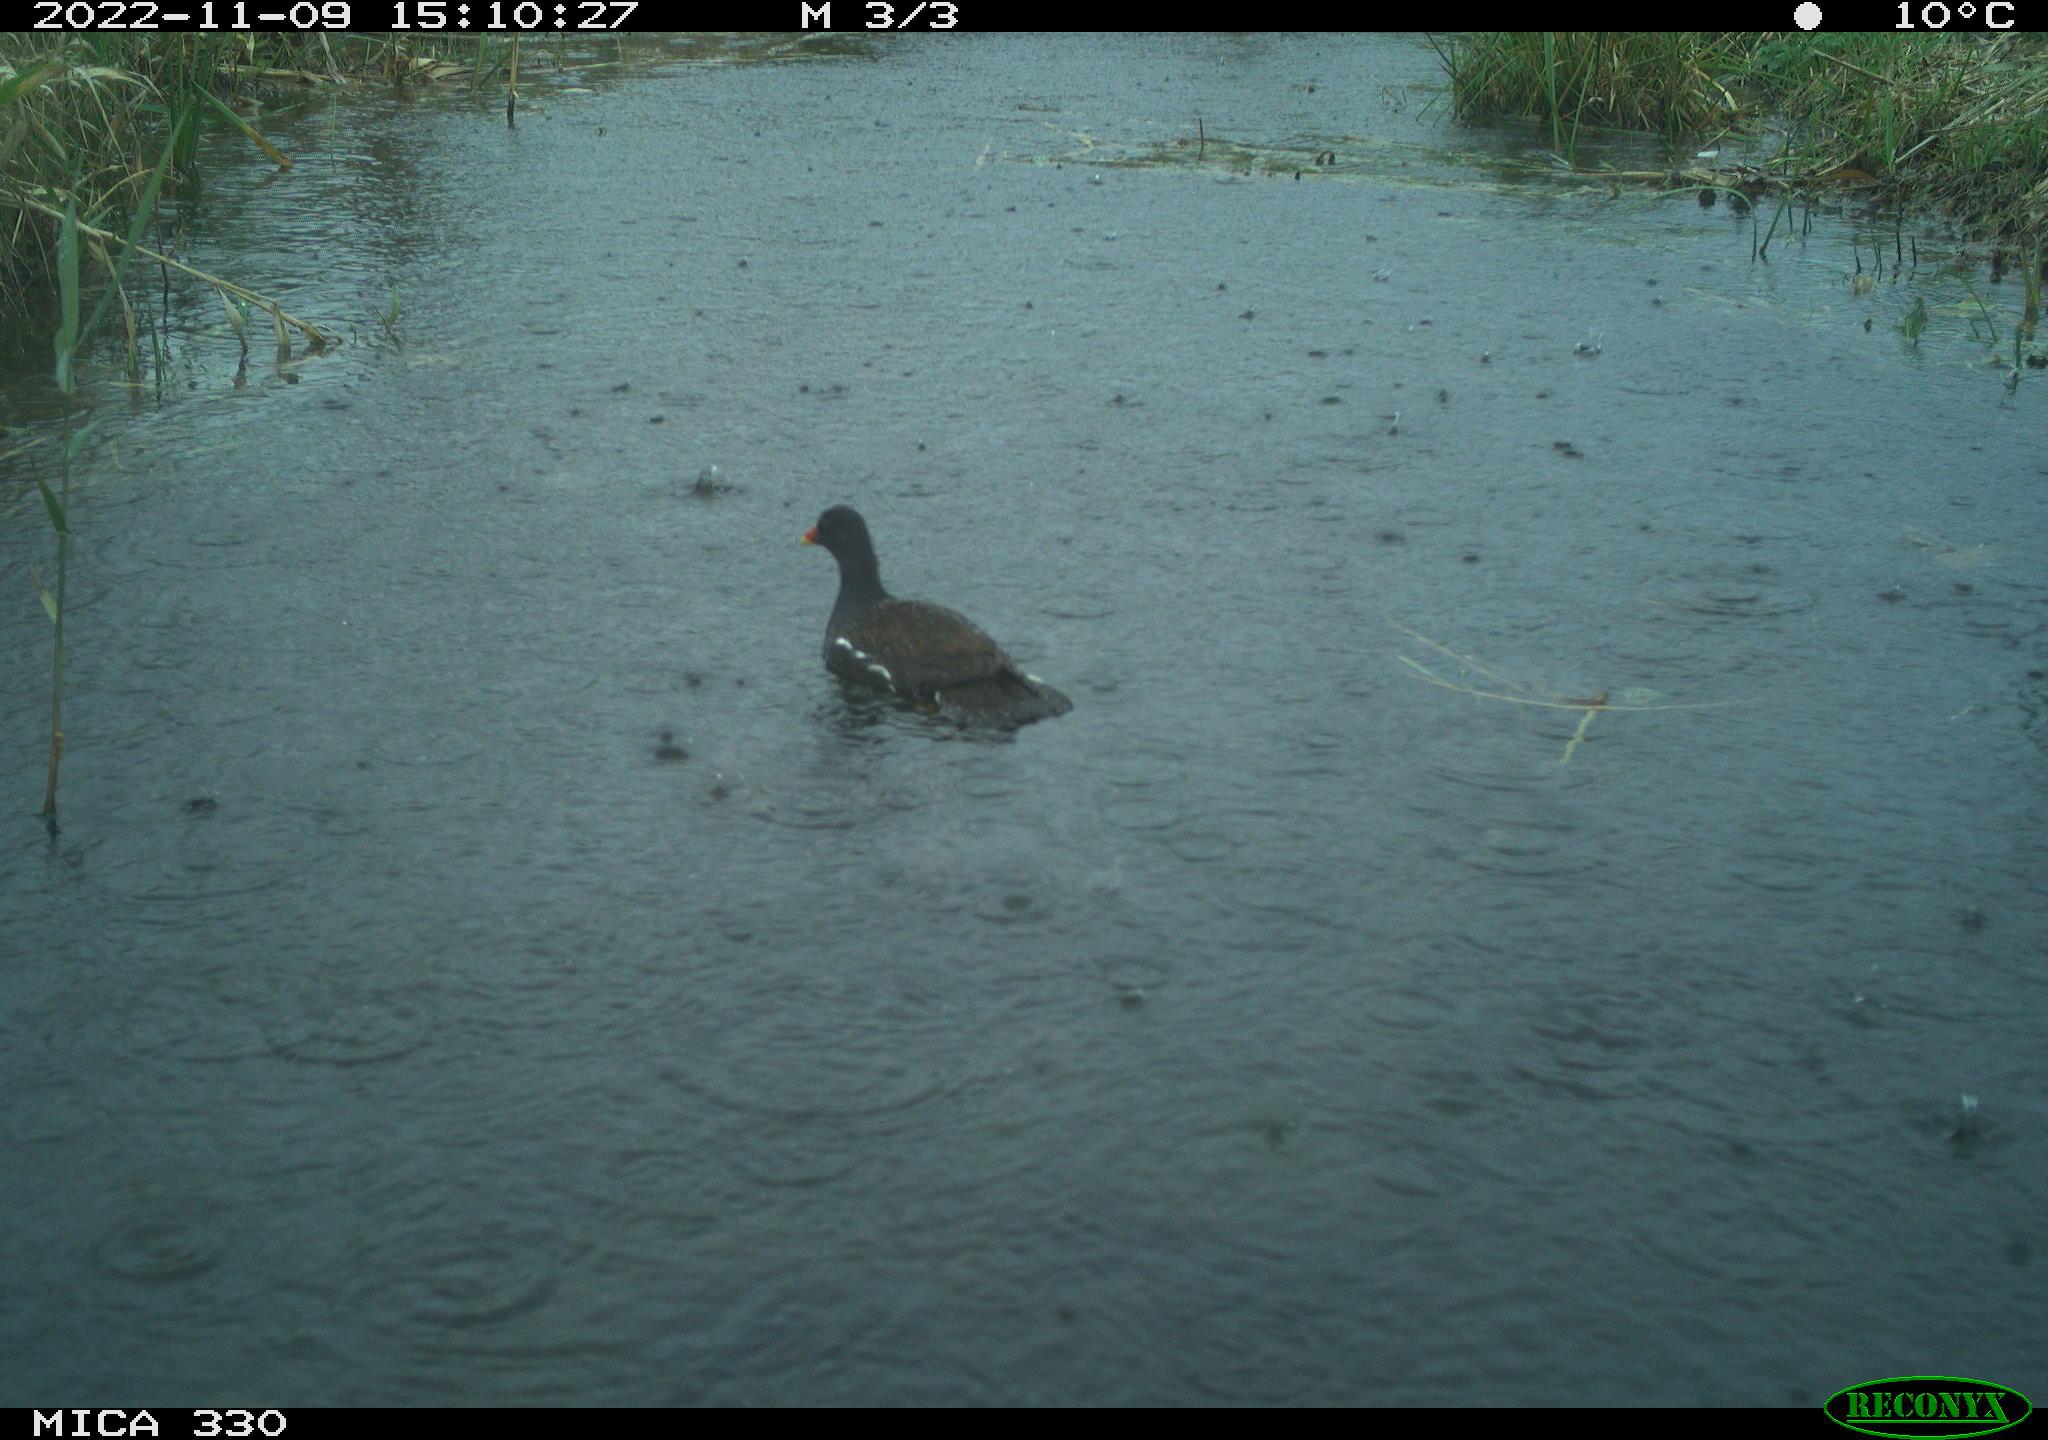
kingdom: Animalia
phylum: Chordata
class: Aves
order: Gruiformes
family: Rallidae
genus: Gallinula
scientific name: Gallinula chloropus
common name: Common moorhen
